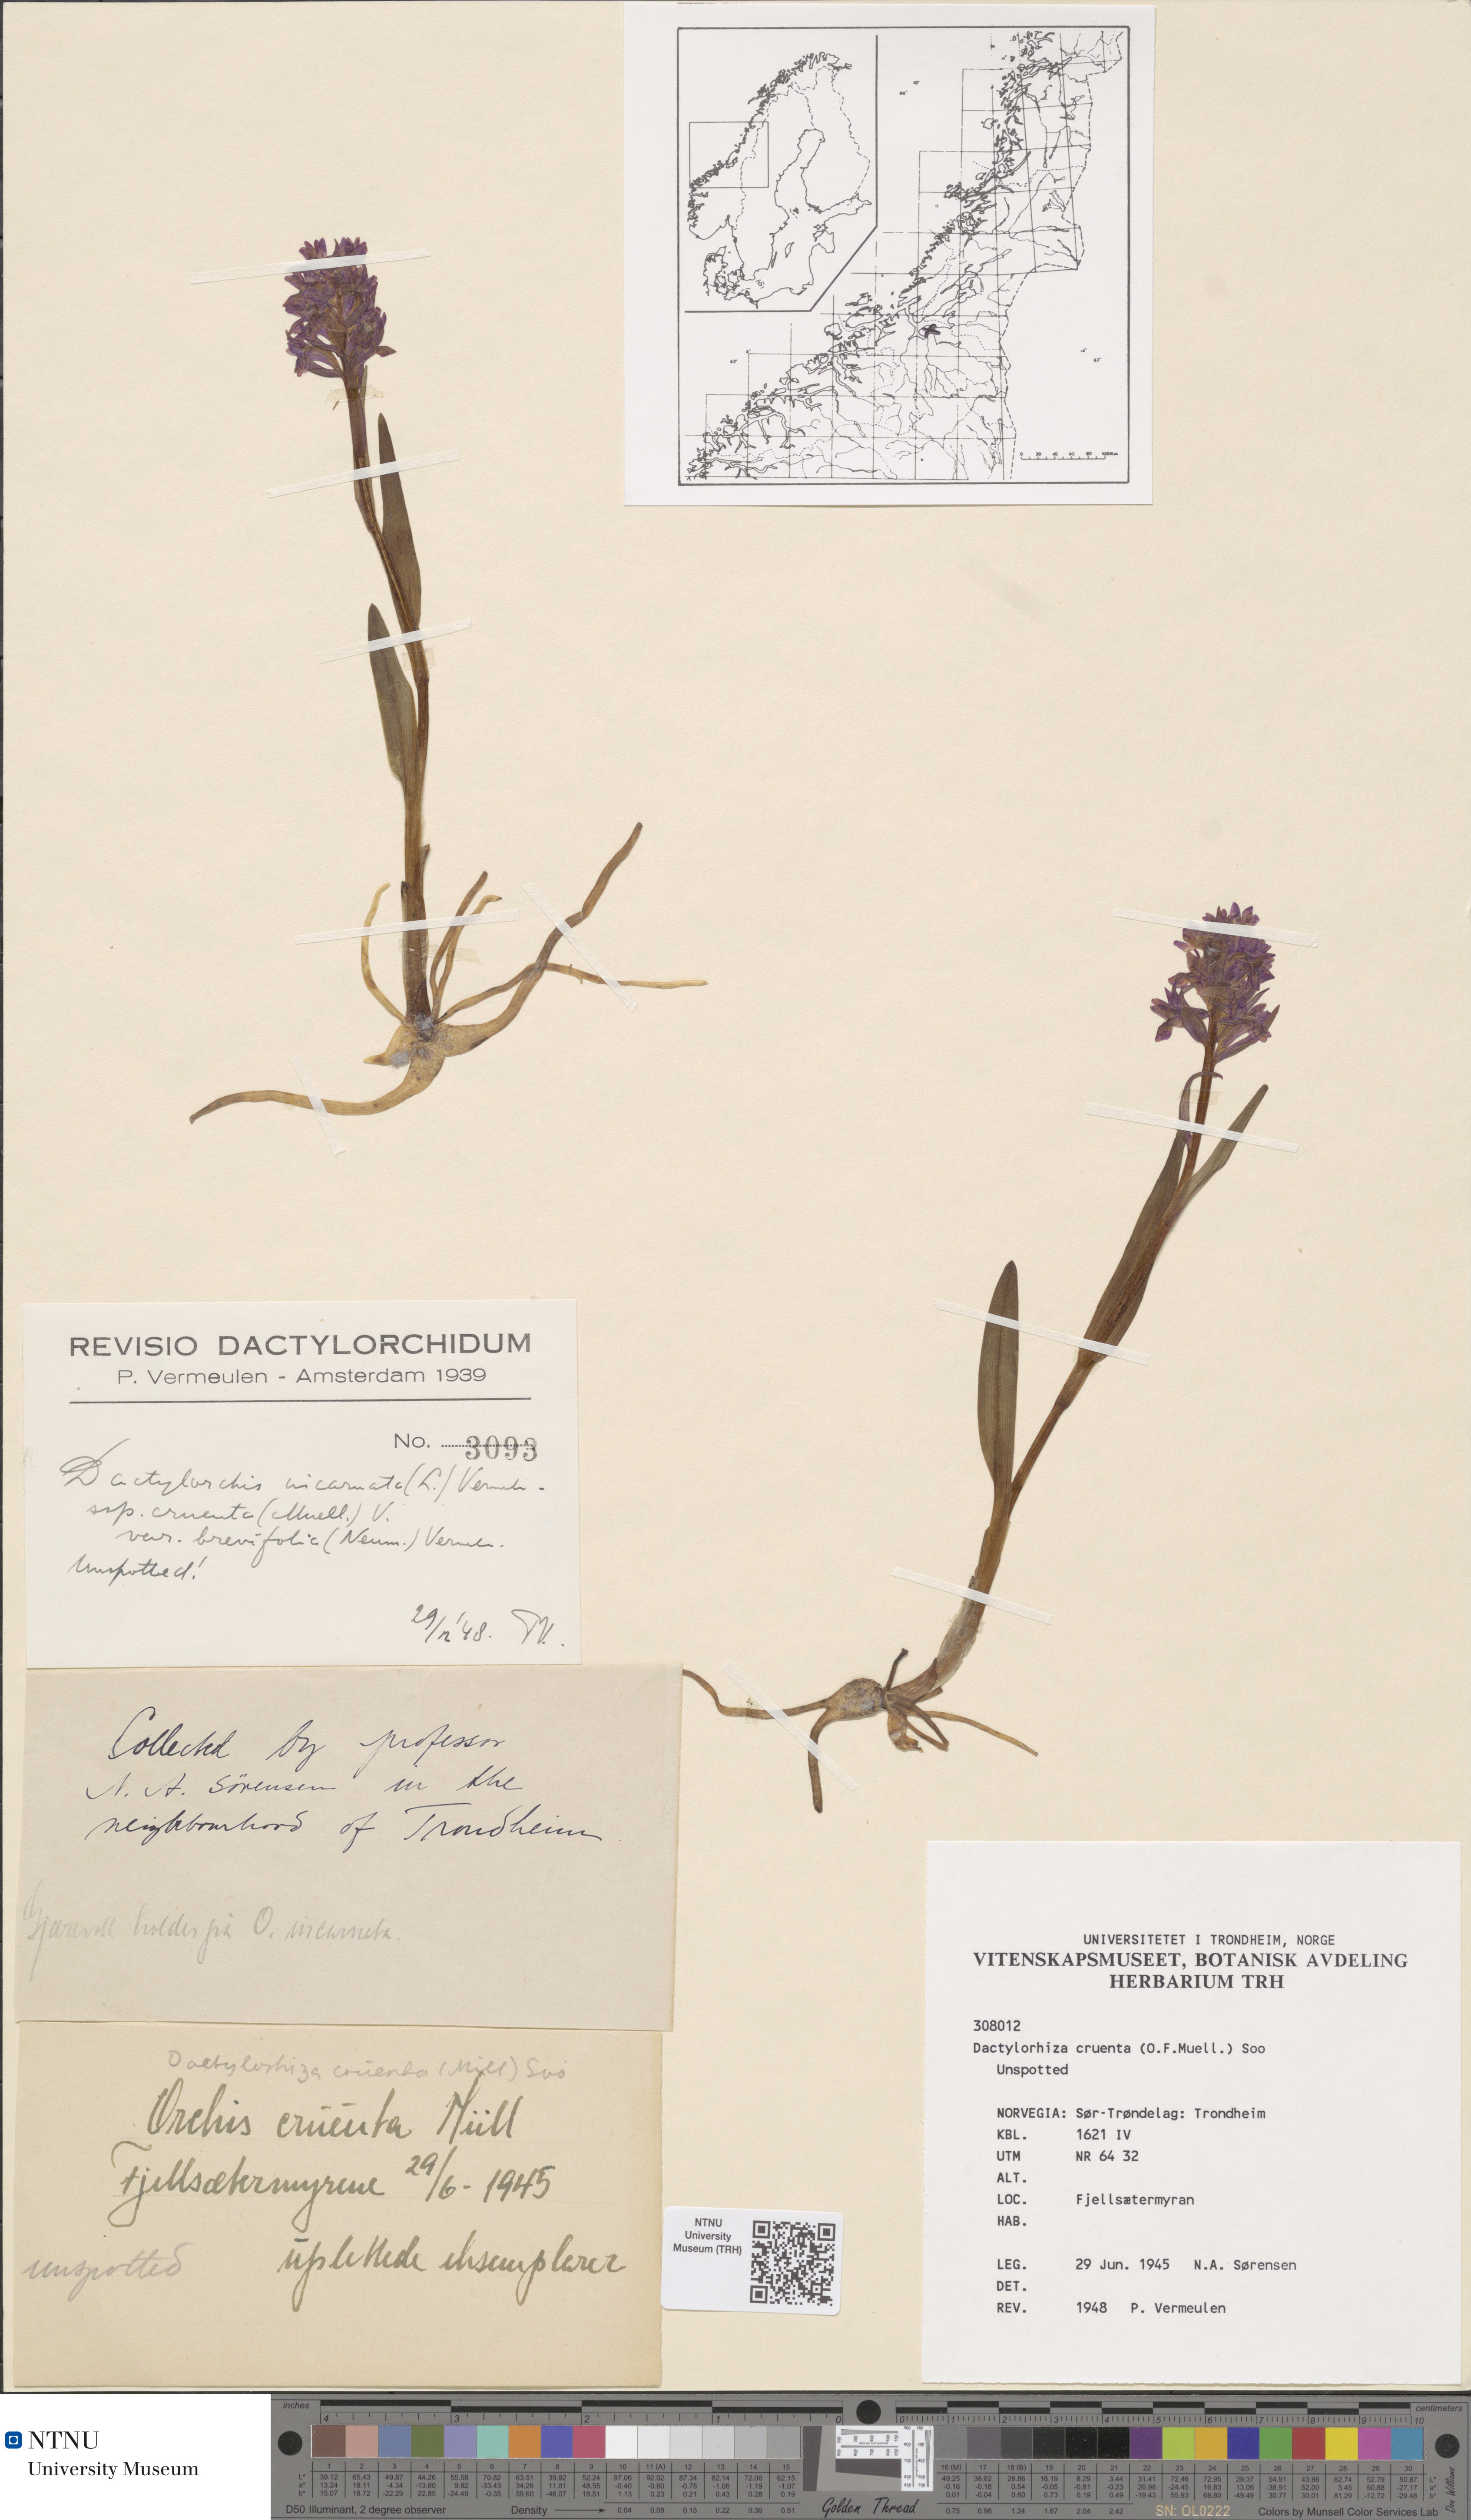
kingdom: Plantae
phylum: Tracheophyta
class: Liliopsida
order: Asparagales
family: Orchidaceae
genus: Dactylorhiza
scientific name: Dactylorhiza incarnata
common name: Early marsh-orchid
